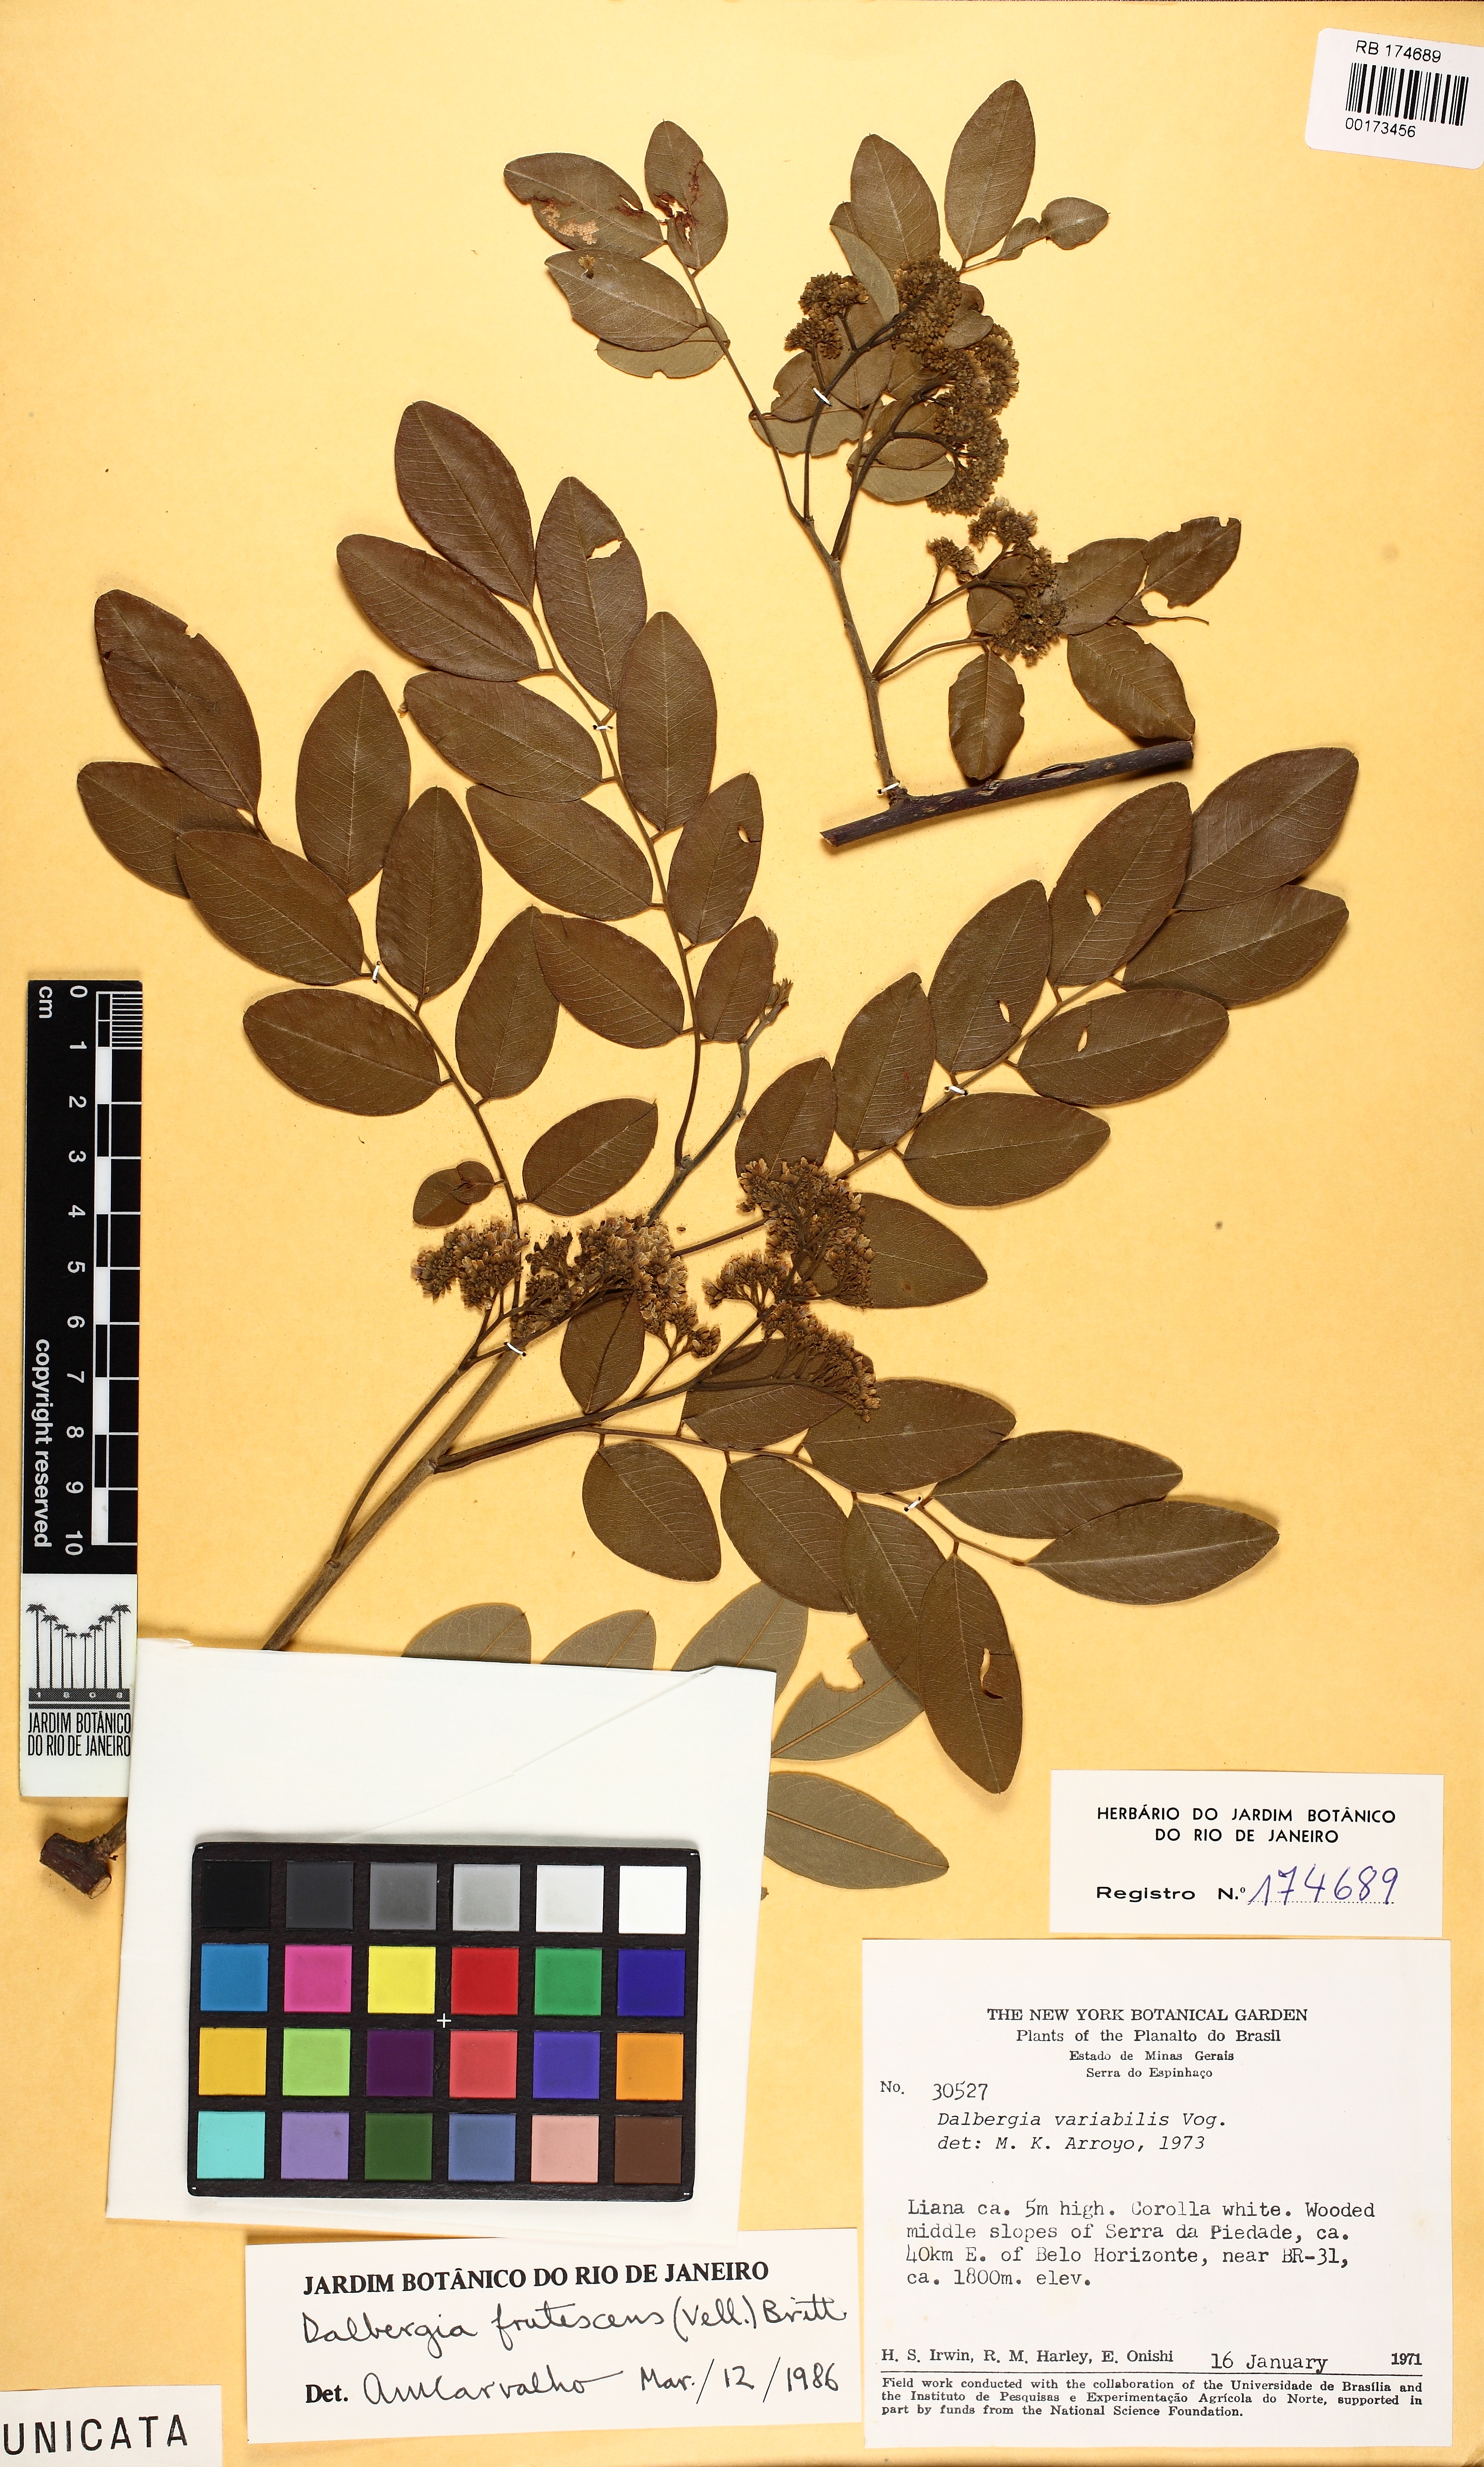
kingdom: Plantae
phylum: Tracheophyta
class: Magnoliopsida
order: Fabales
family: Fabaceae
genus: Dalbergia
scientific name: Dalbergia frutescens
